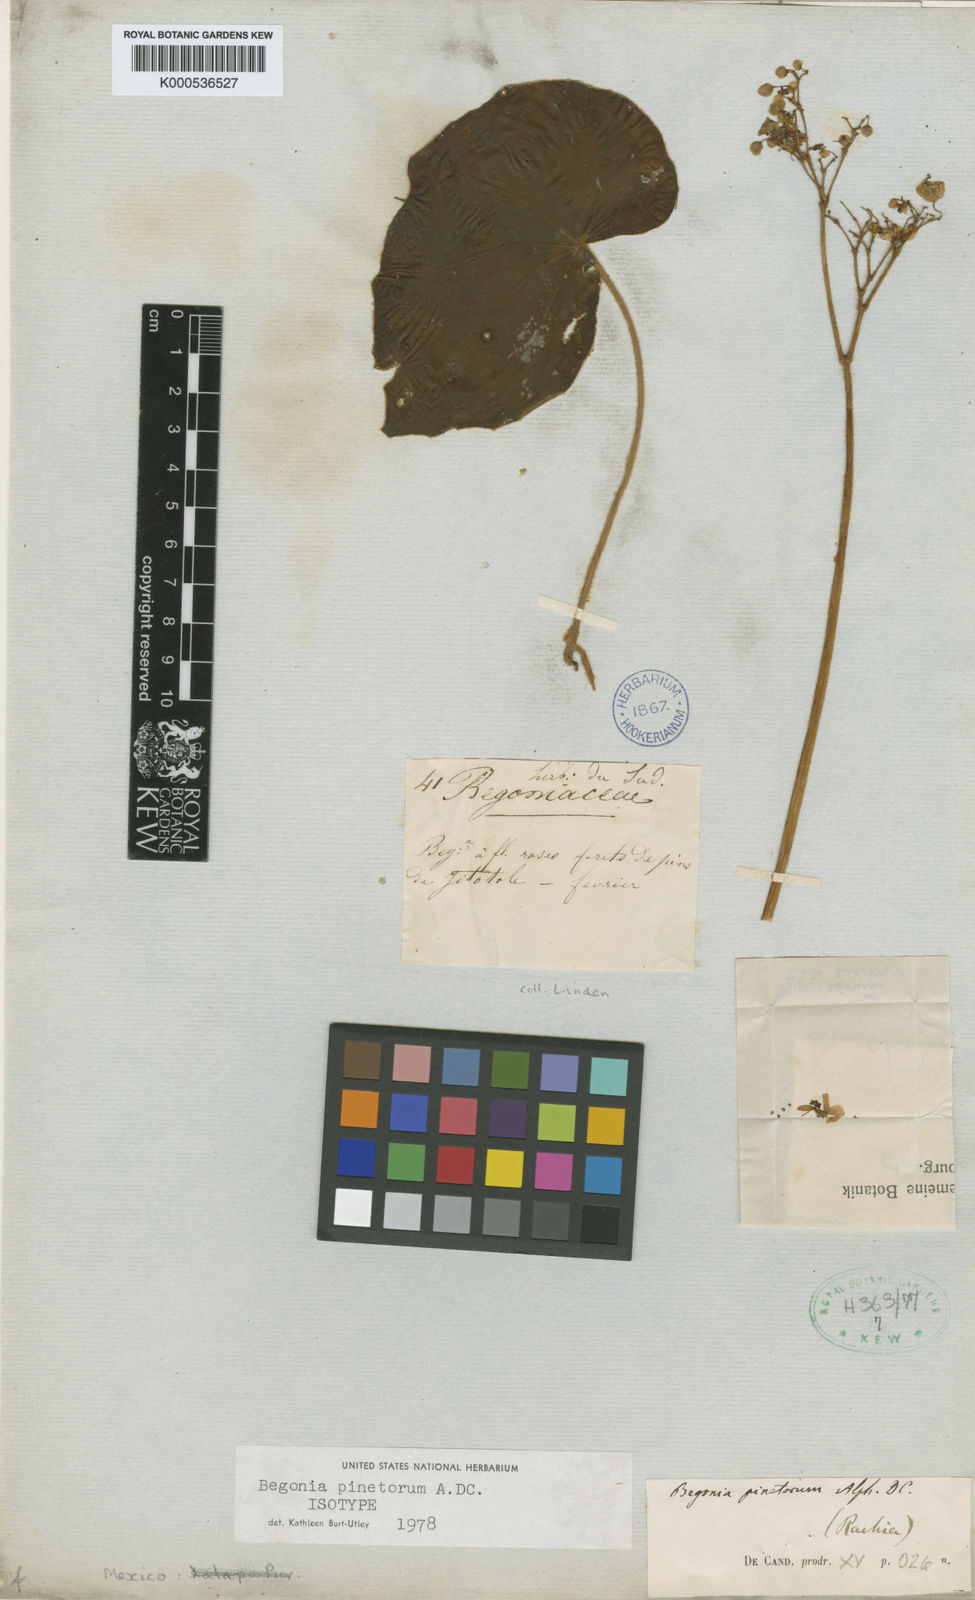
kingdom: Plantae
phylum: Tracheophyta
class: Magnoliopsida
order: Cucurbitales
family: Begoniaceae
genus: Begonia
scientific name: Begonia pinetorum
